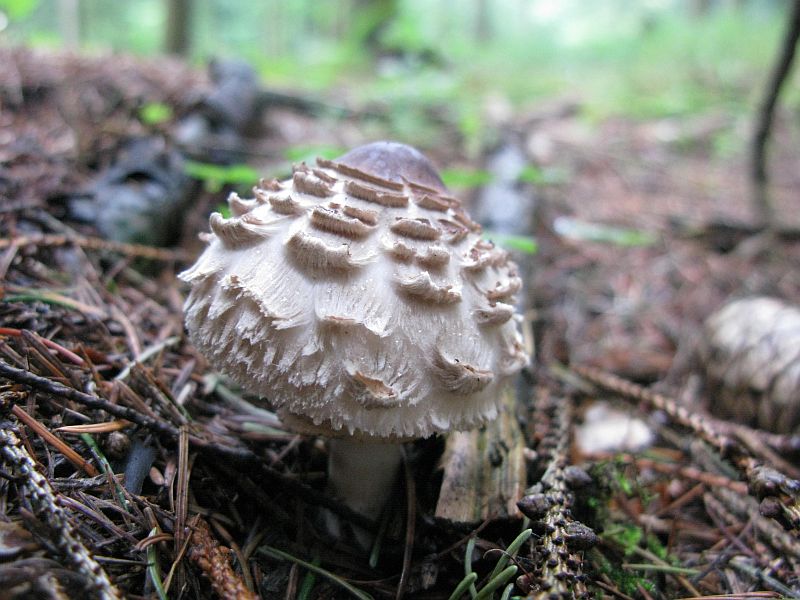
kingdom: Fungi
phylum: Basidiomycota
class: Agaricomycetes
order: Agaricales
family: Agaricaceae
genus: Chlorophyllum
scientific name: Chlorophyllum olivieri
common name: almindelig rabarberhat
